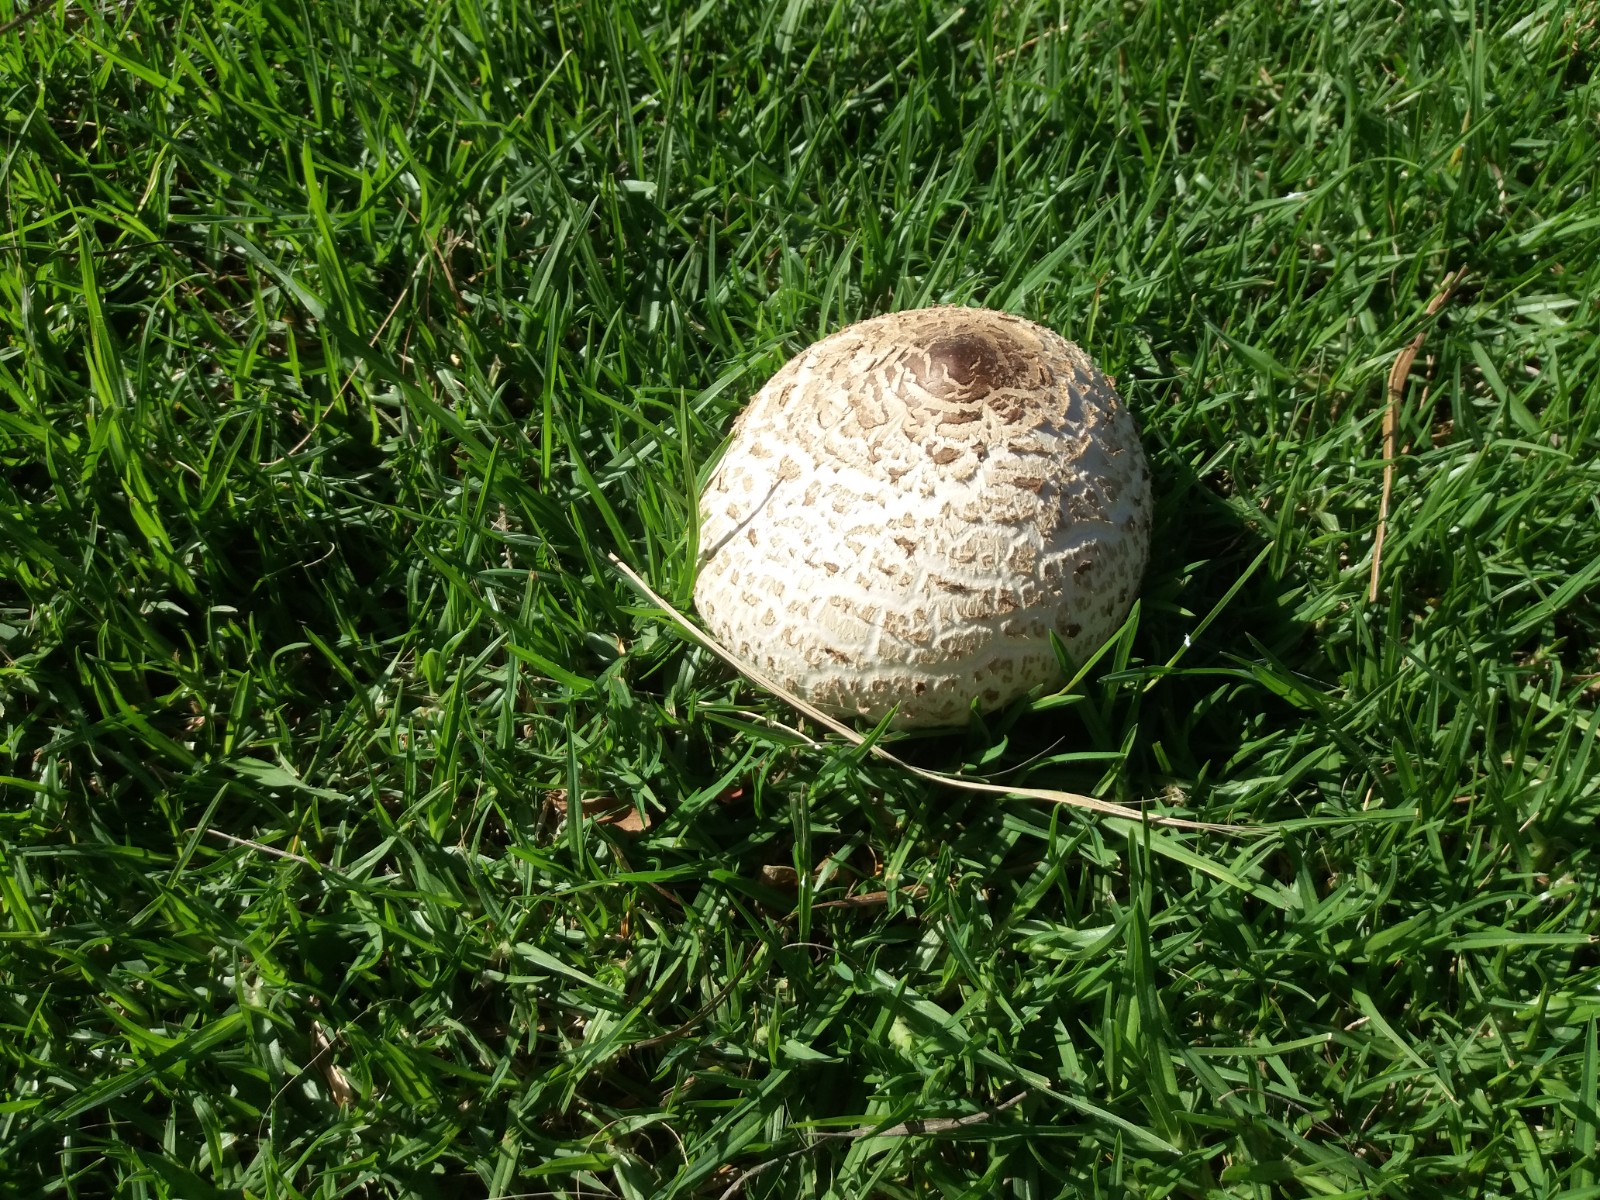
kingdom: Fungi
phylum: Basidiomycota
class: Agaricomycetes
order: Agaricales
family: Agaricaceae
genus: Chlorophyllum
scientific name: Chlorophyllum molybdites
